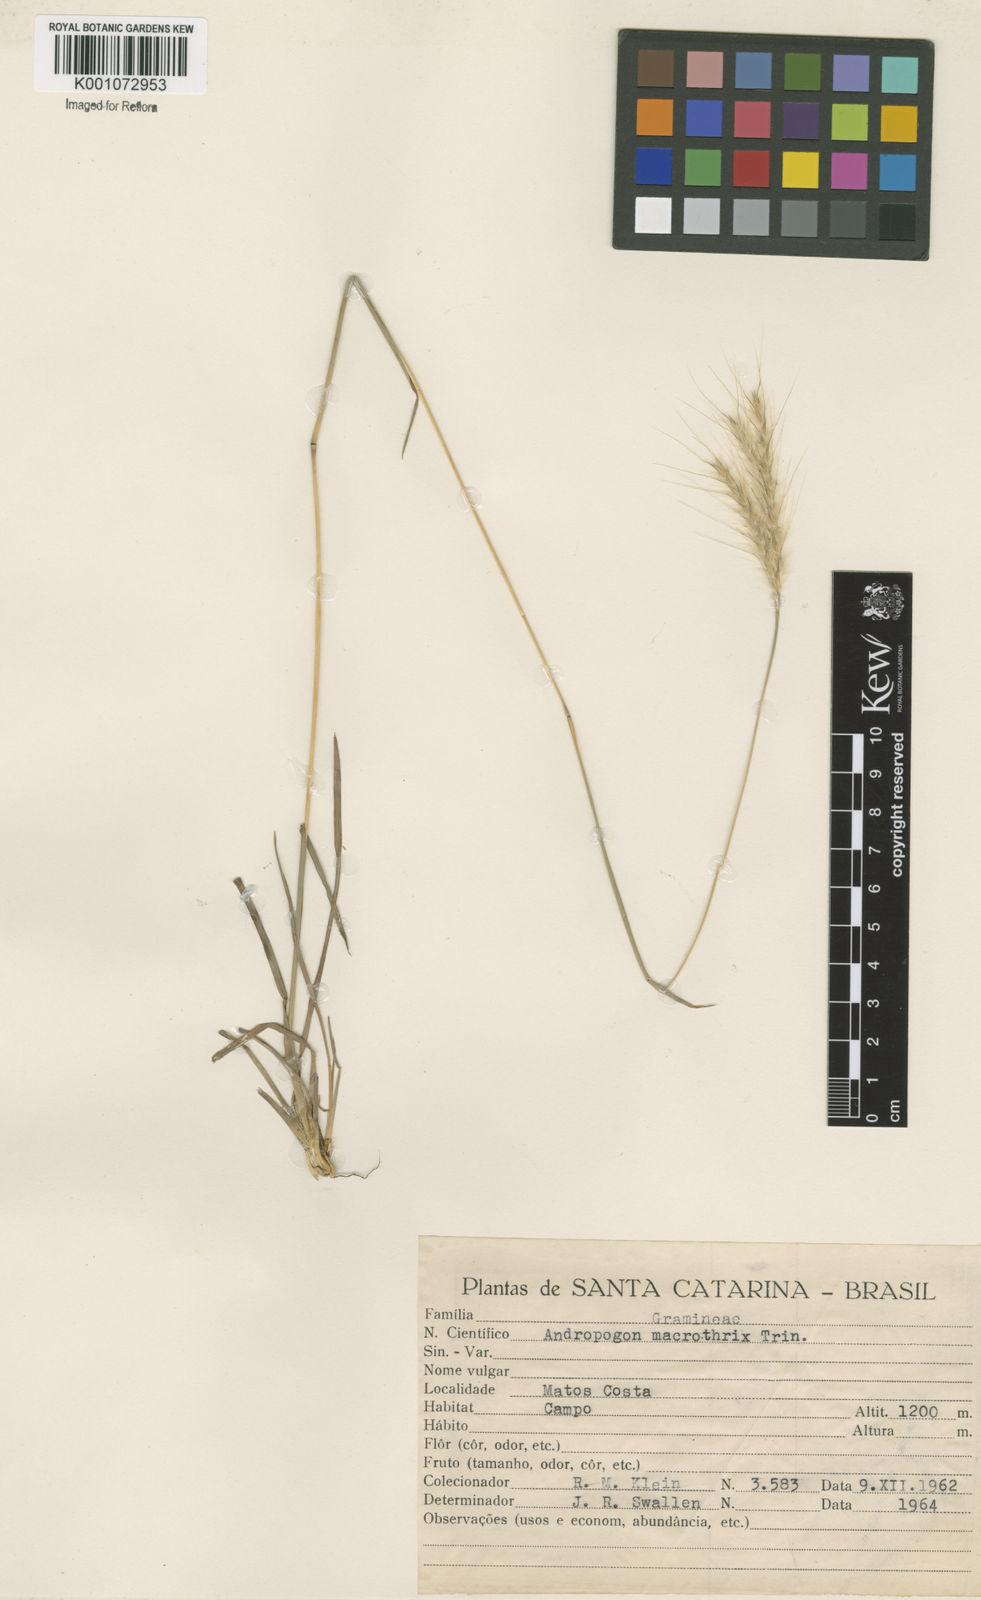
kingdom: Plantae
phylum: Tracheophyta
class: Liliopsida
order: Poales
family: Poaceae
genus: Andropogon
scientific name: Andropogon macrothrix
